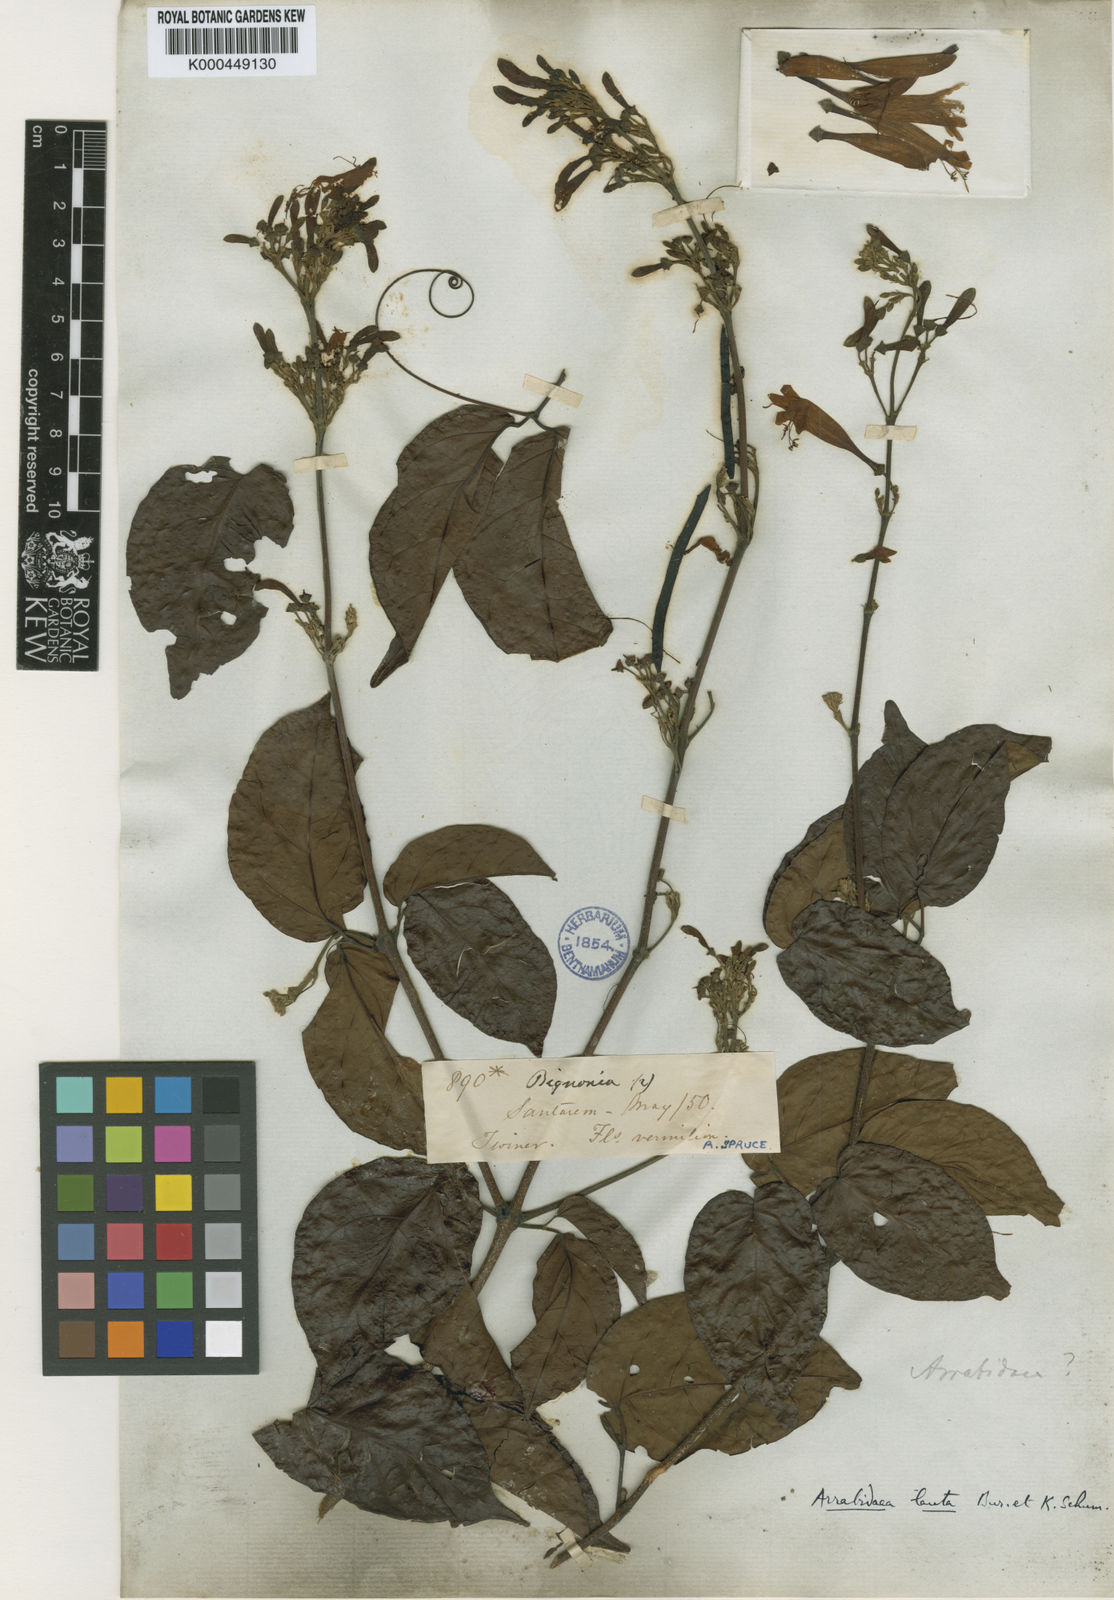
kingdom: Plantae
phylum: Tracheophyta
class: Magnoliopsida
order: Lamiales
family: Bignoniaceae
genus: Fridericia
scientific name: Fridericia lauta
